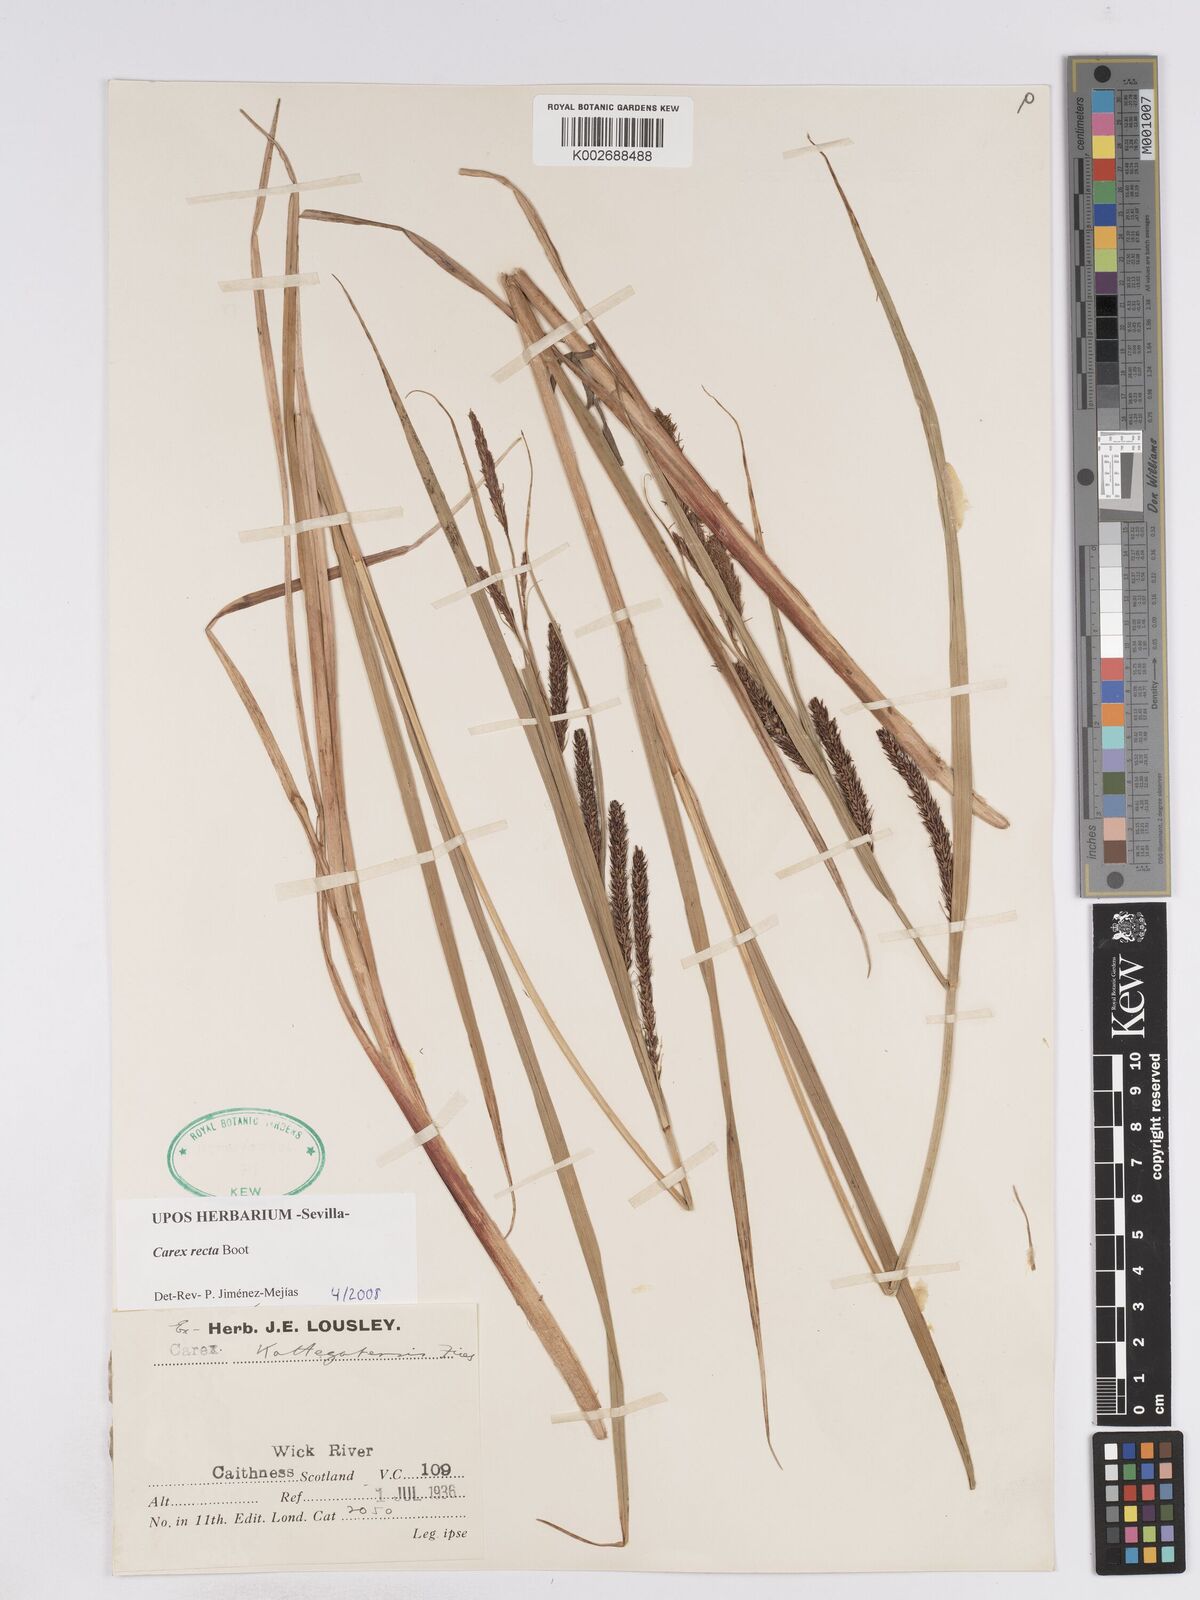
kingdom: Plantae
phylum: Tracheophyta
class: Liliopsida
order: Poales
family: Cyperaceae
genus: Carex
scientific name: Carex recta
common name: Estuarine sedge
